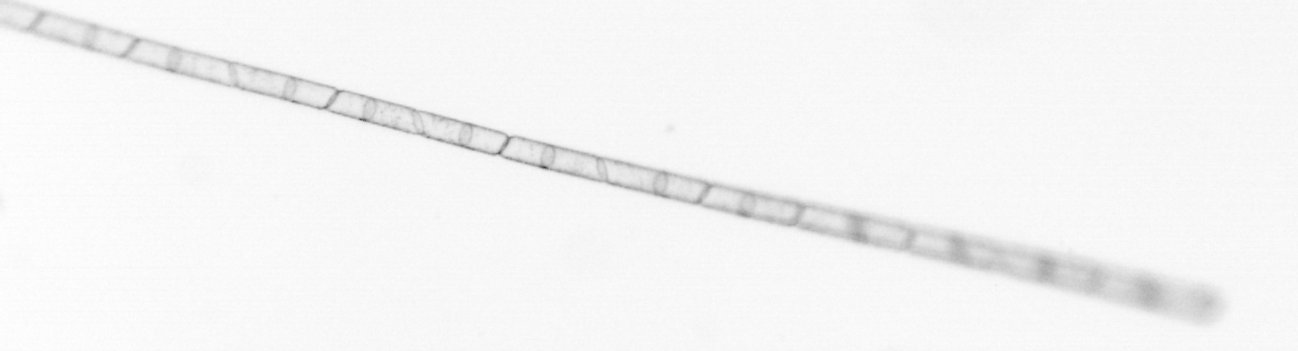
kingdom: Chromista
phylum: Ochrophyta
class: Bacillariophyceae
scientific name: Bacillariophyceae
